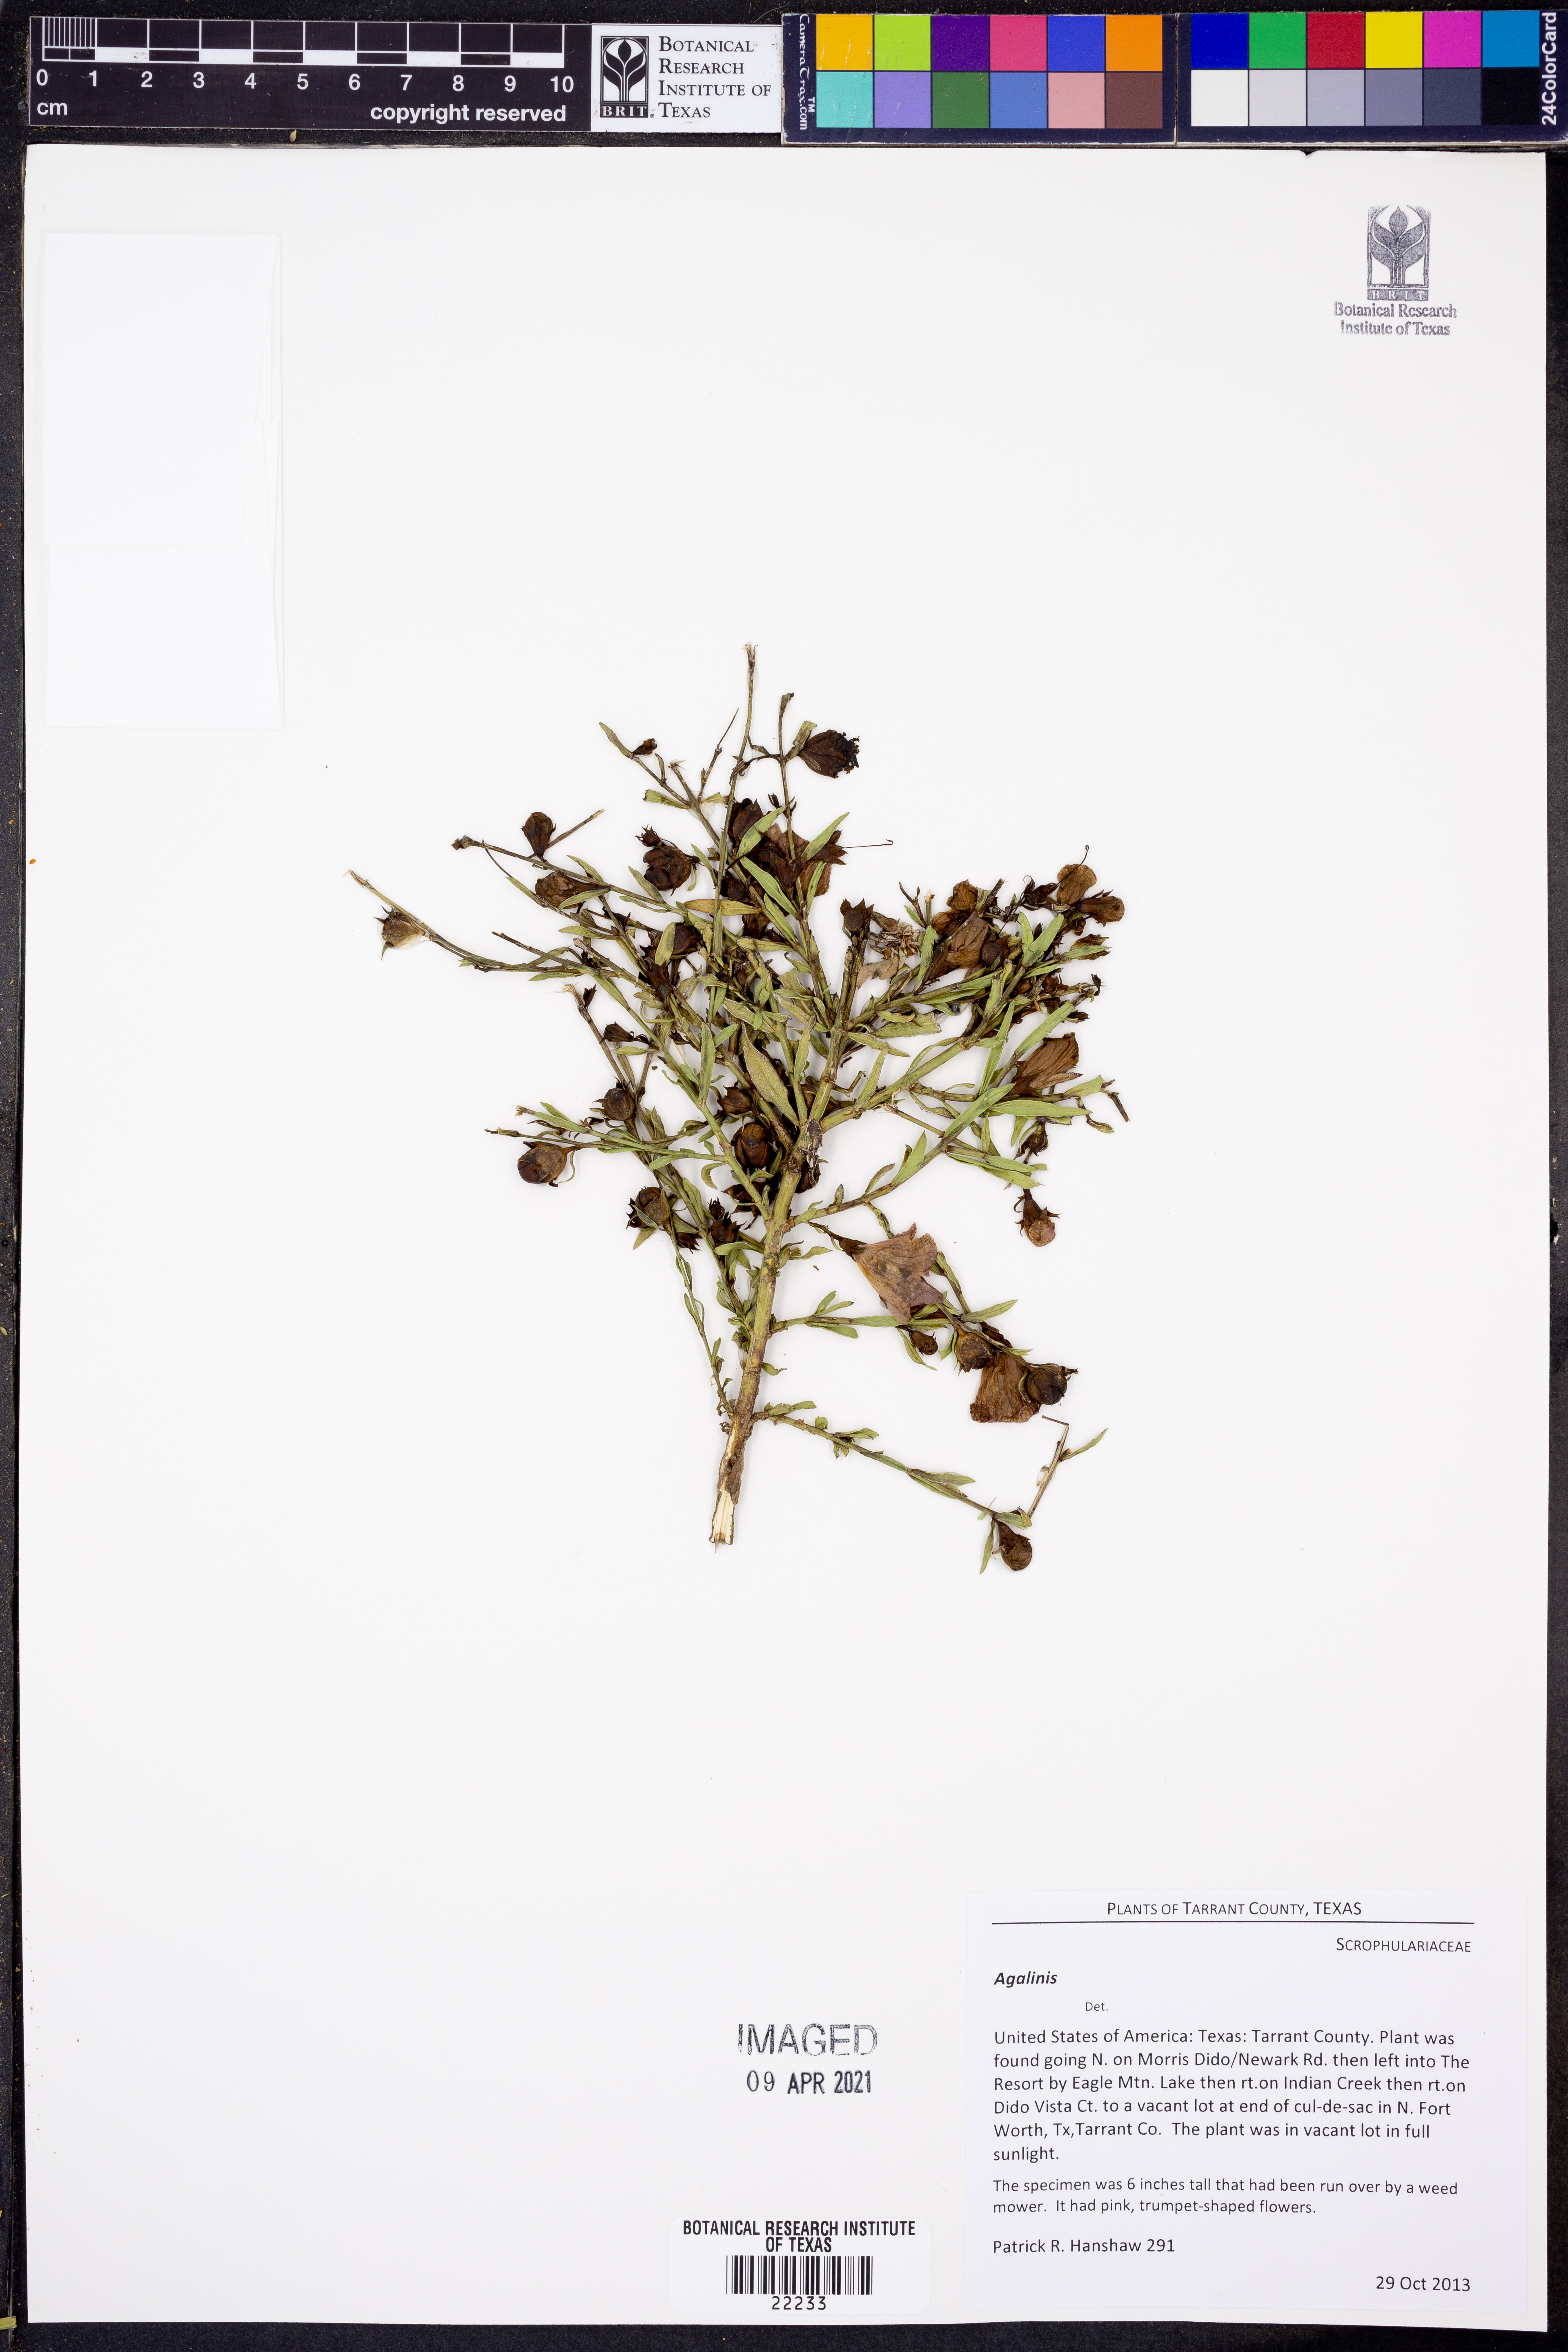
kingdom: Plantae
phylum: Tracheophyta
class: Magnoliopsida
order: Lamiales
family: Orobanchaceae
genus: Agalinis
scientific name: Agalinis
